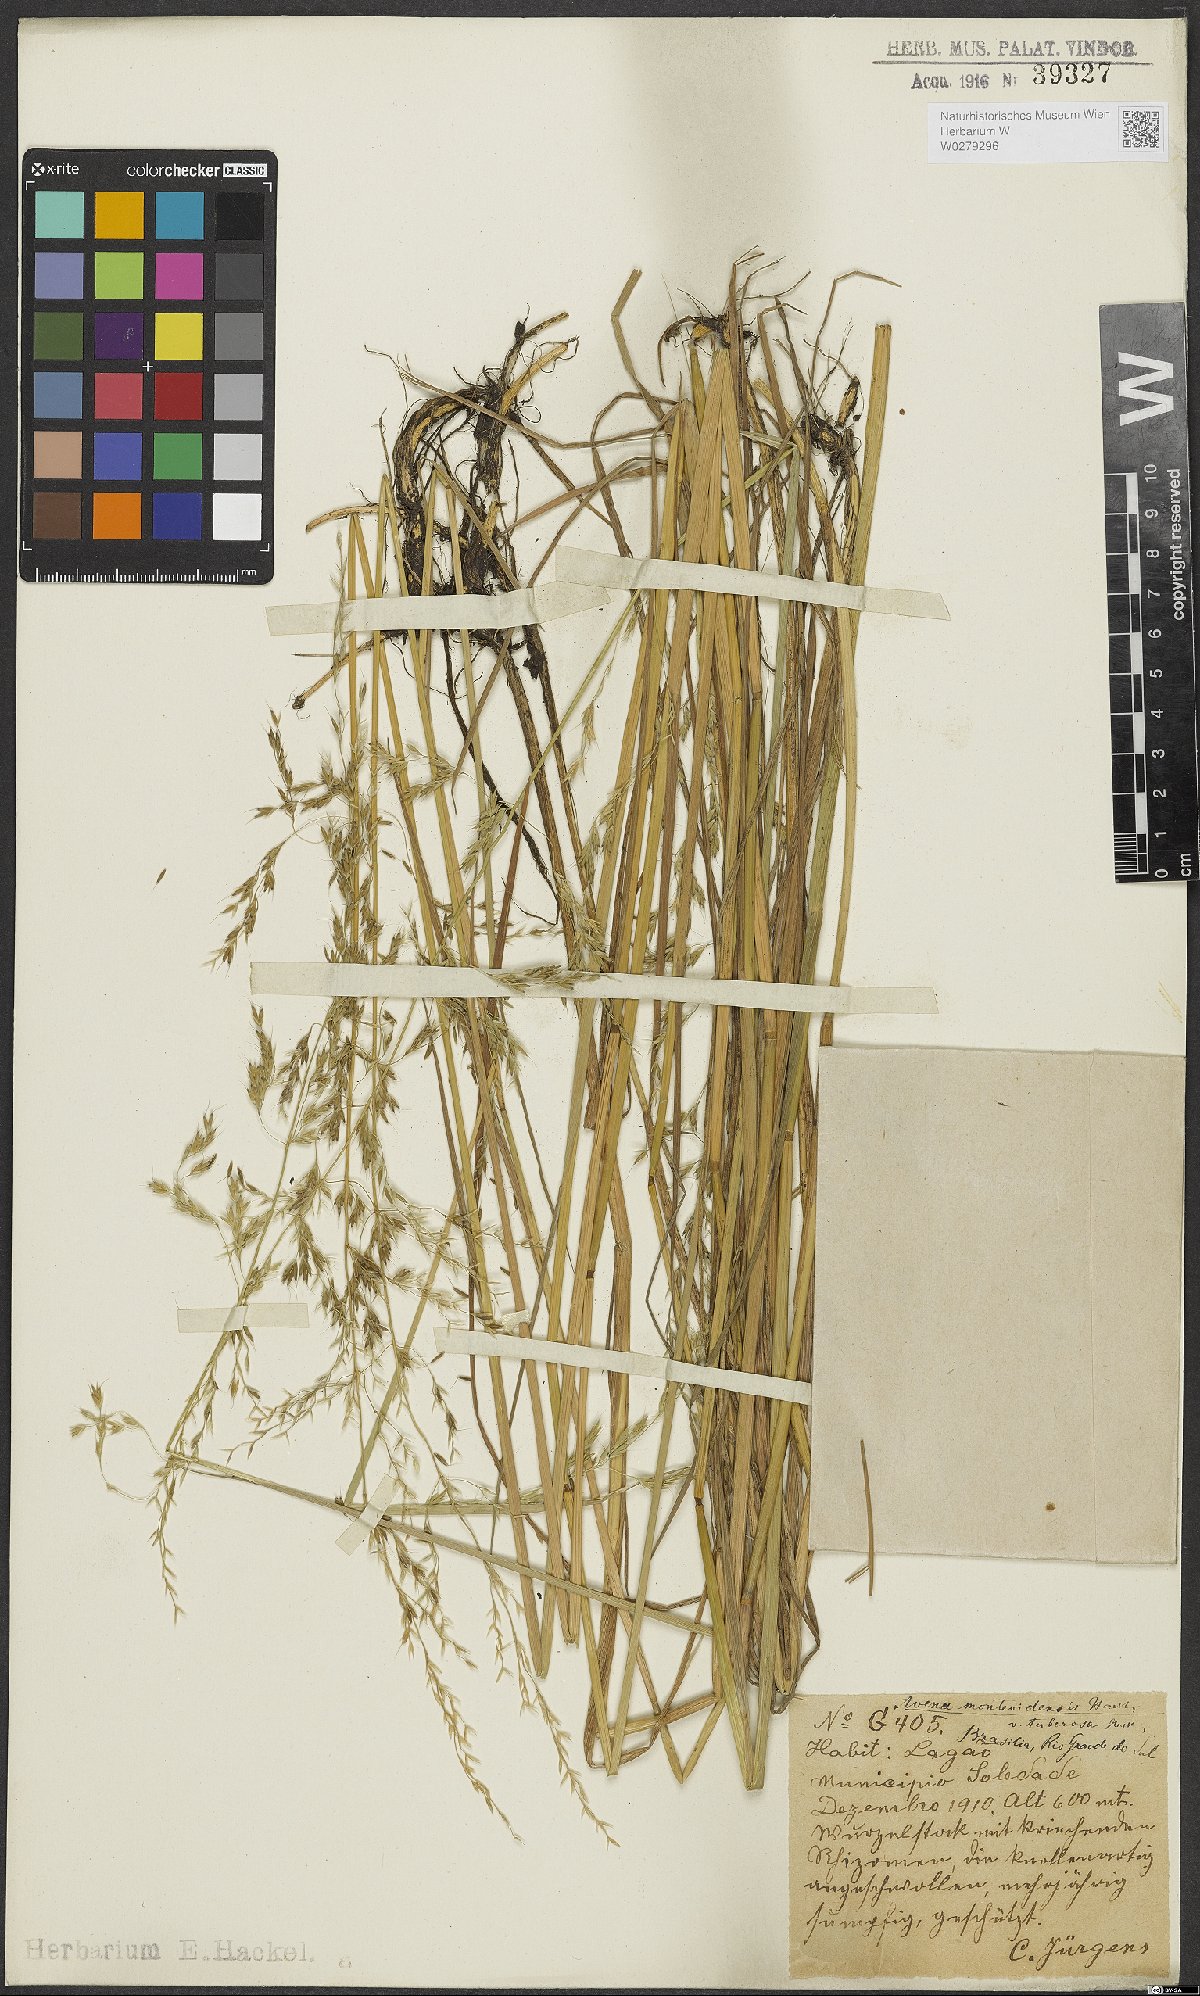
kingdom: Plantae
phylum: Tracheophyta
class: Liliopsida
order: Poales
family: Poaceae
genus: Amphibromus
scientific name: Amphibromus quadridentulus
